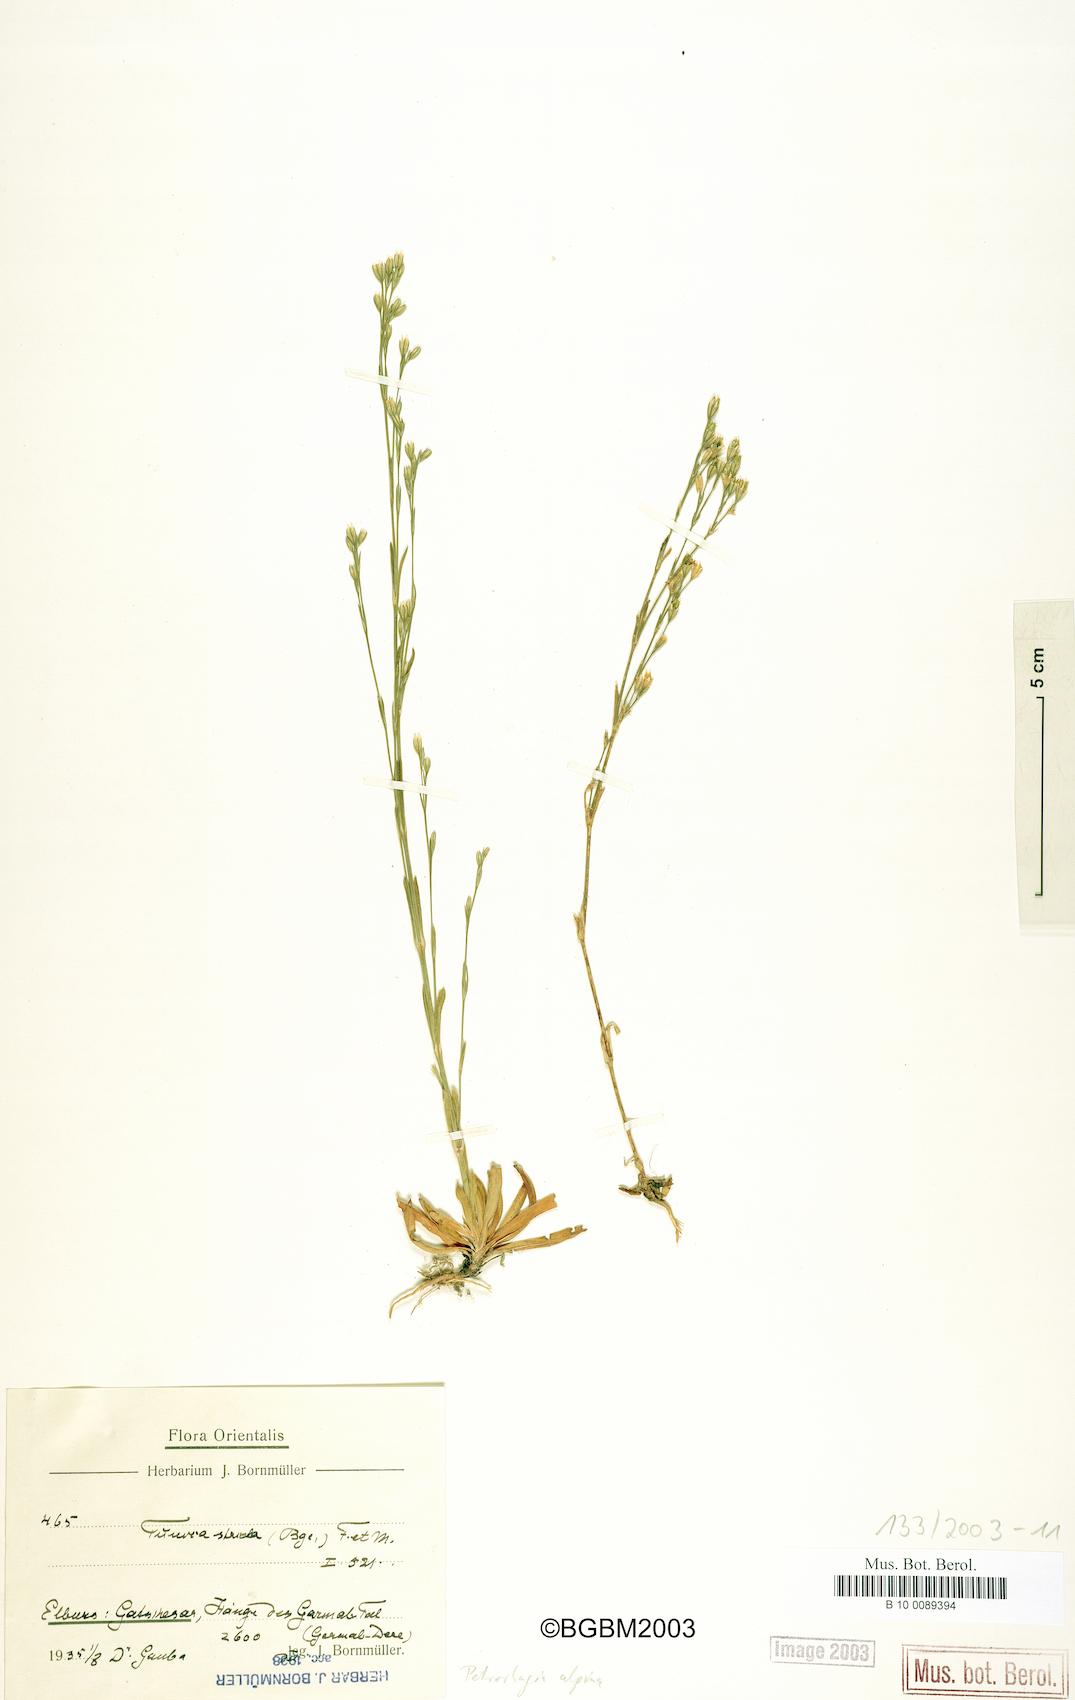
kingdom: Plantae
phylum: Tracheophyta
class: Magnoliopsida
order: Caryophyllales
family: Caryophyllaceae
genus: Petrorhagia
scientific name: Petrorhagia alpina
